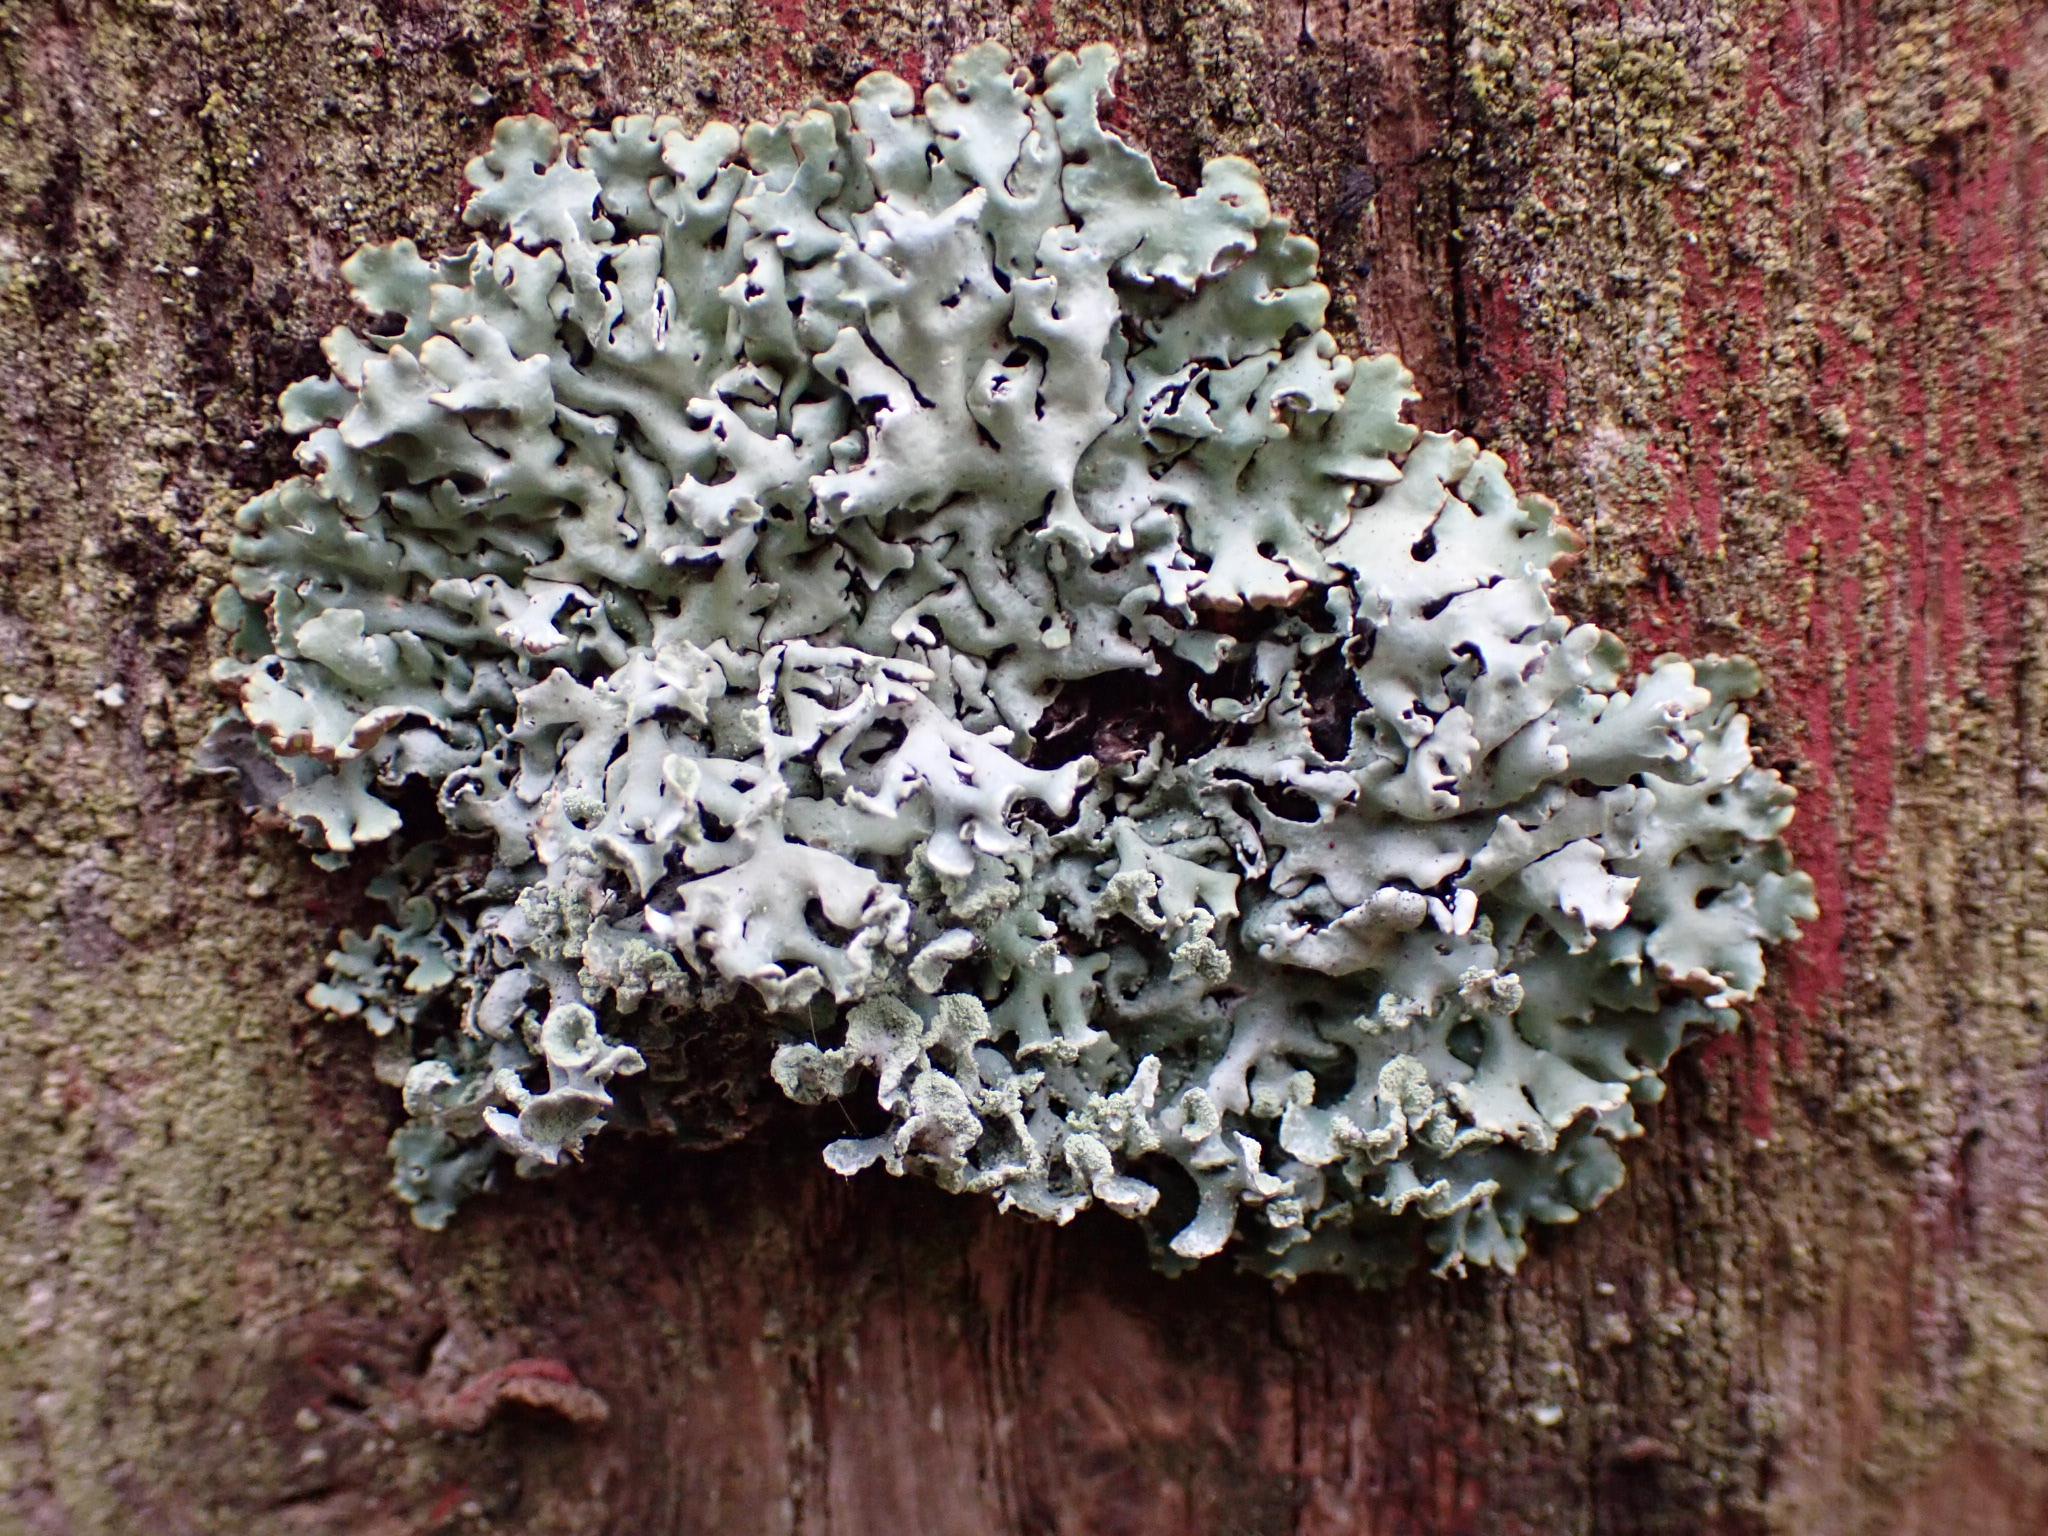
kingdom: Fungi
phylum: Ascomycota
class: Lecanoromycetes
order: Lecanorales
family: Parmeliaceae
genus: Hypogymnia
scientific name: Hypogymnia physodes
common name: almindelig kvistlav
